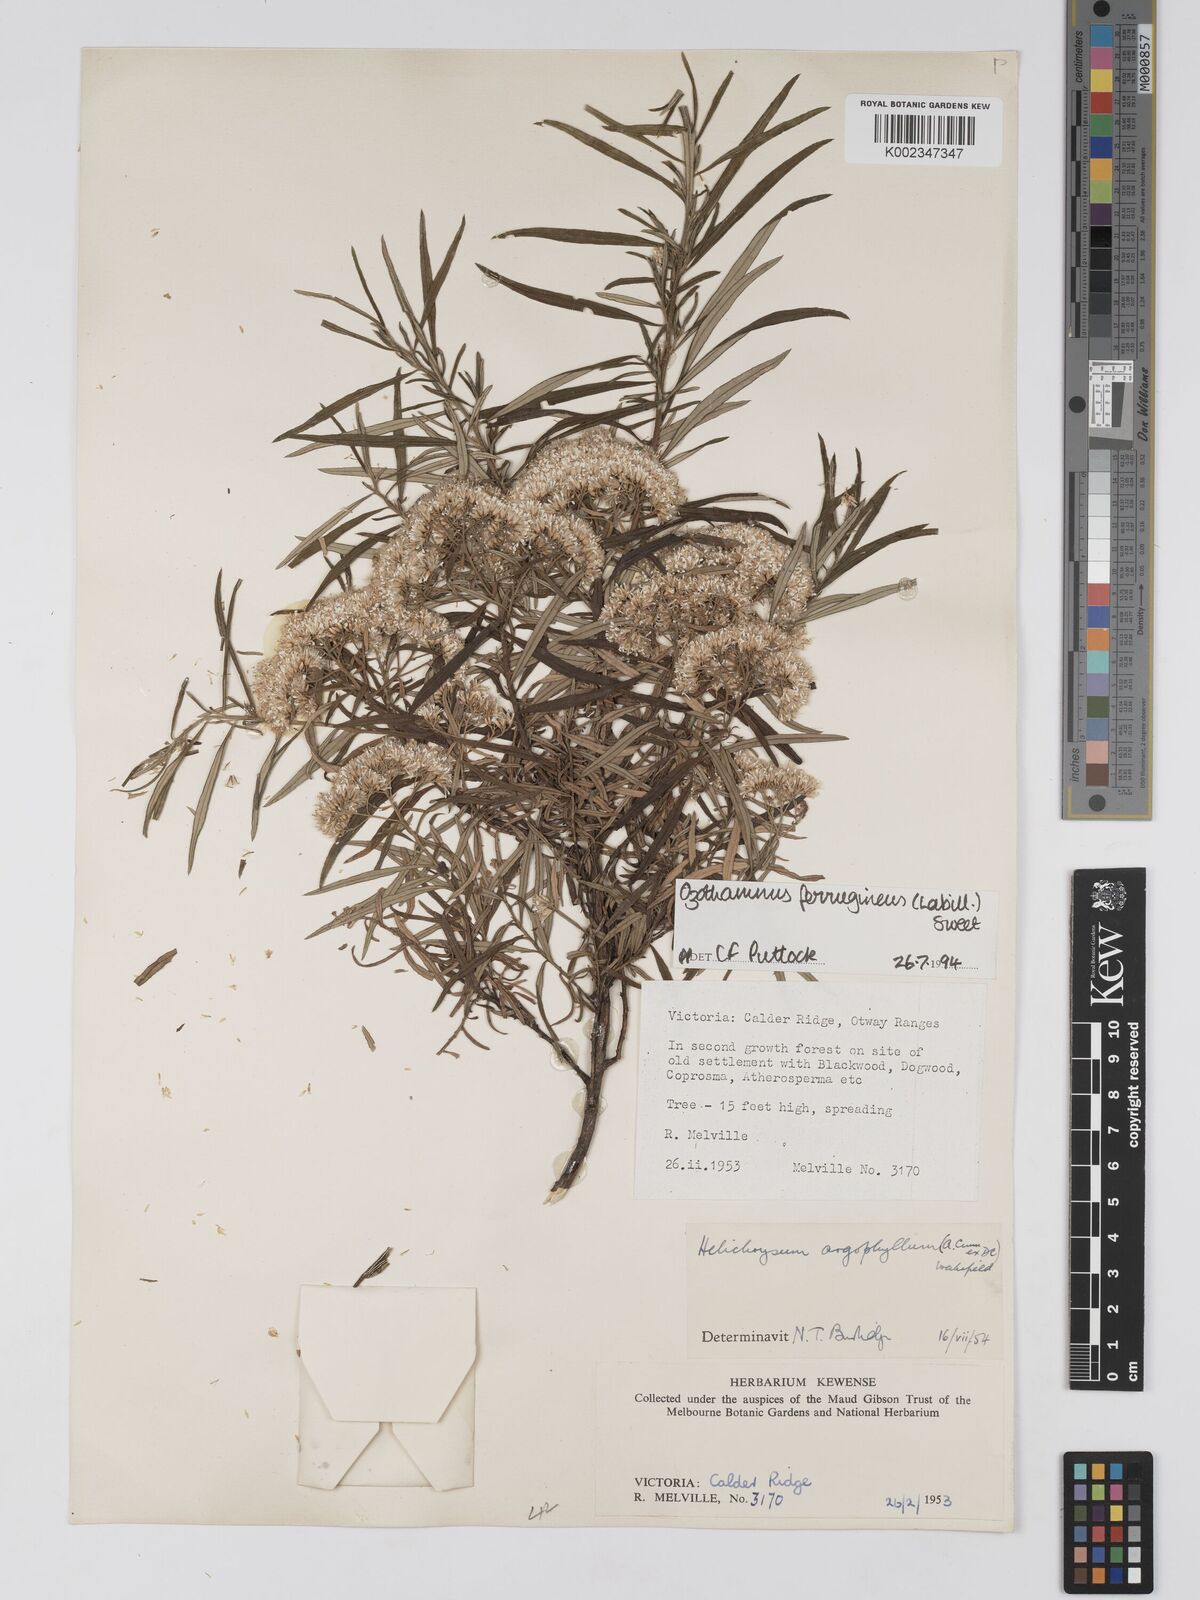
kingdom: Plantae
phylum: Tracheophyta
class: Magnoliopsida
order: Asterales
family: Asteraceae
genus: Ozothamnus
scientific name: Ozothamnus ferrugineus
